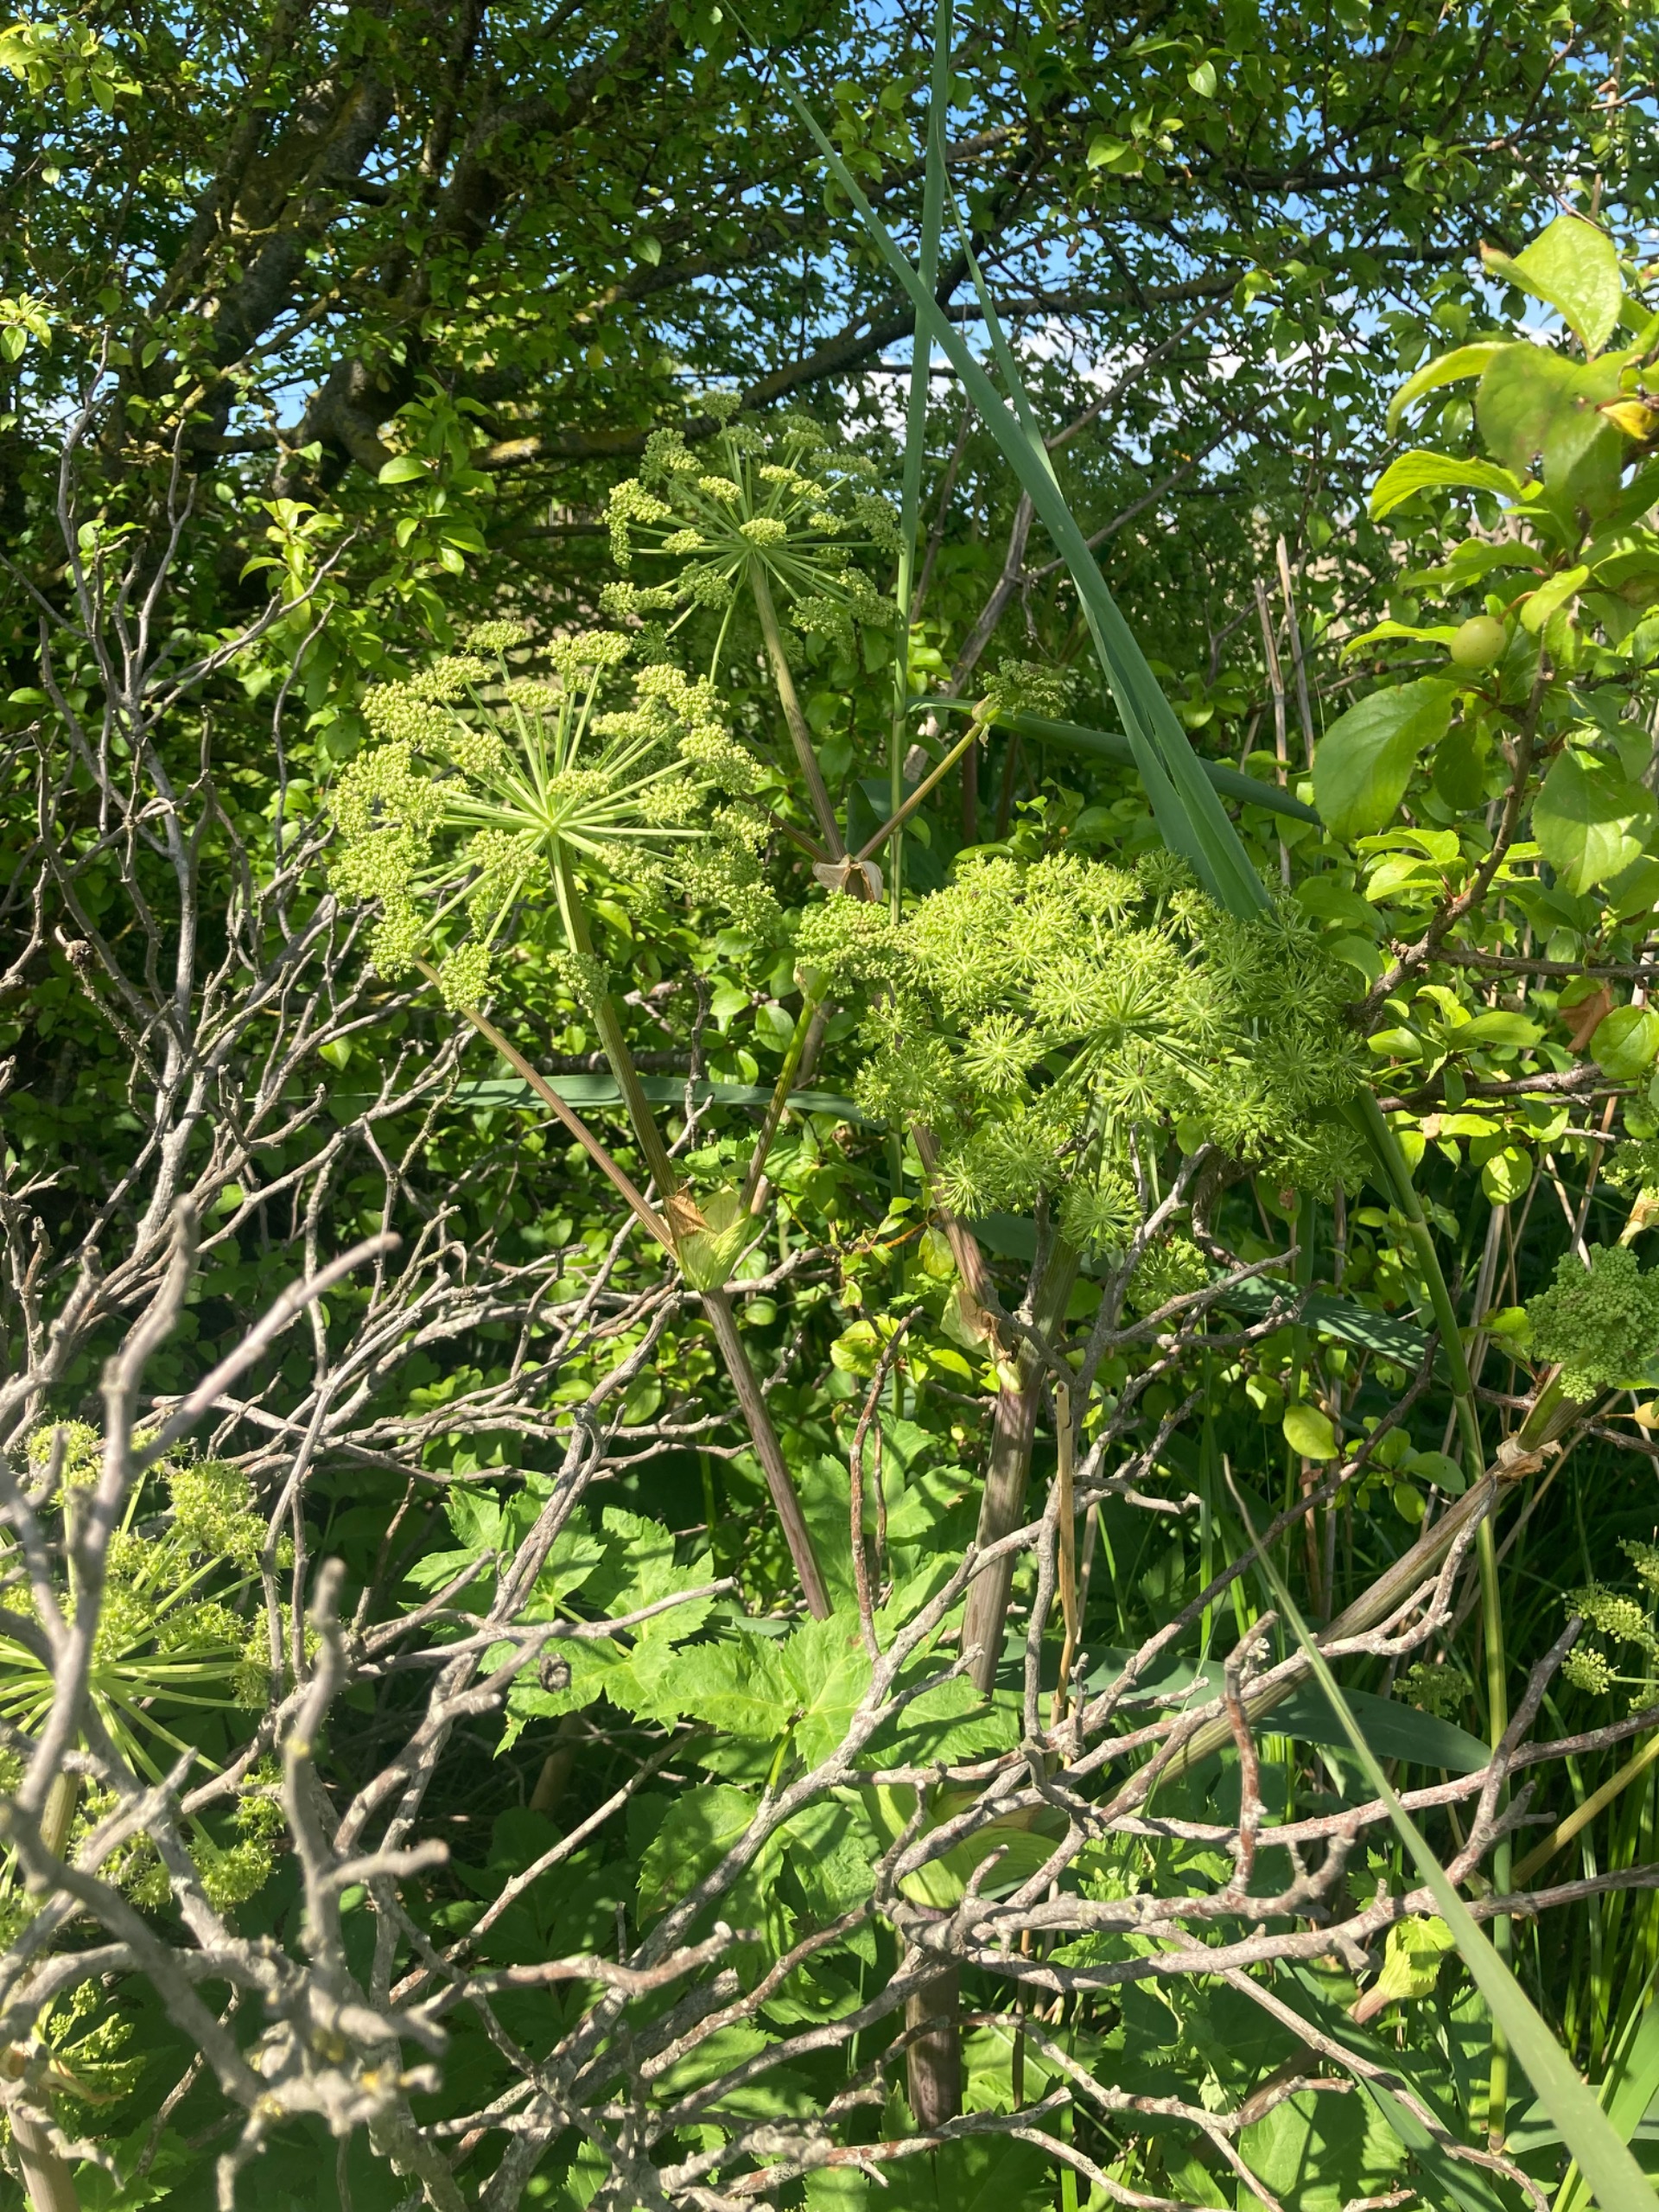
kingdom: Plantae
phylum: Tracheophyta
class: Magnoliopsida
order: Apiales
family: Apiaceae
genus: Angelica
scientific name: Angelica archangelica
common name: Kvan
